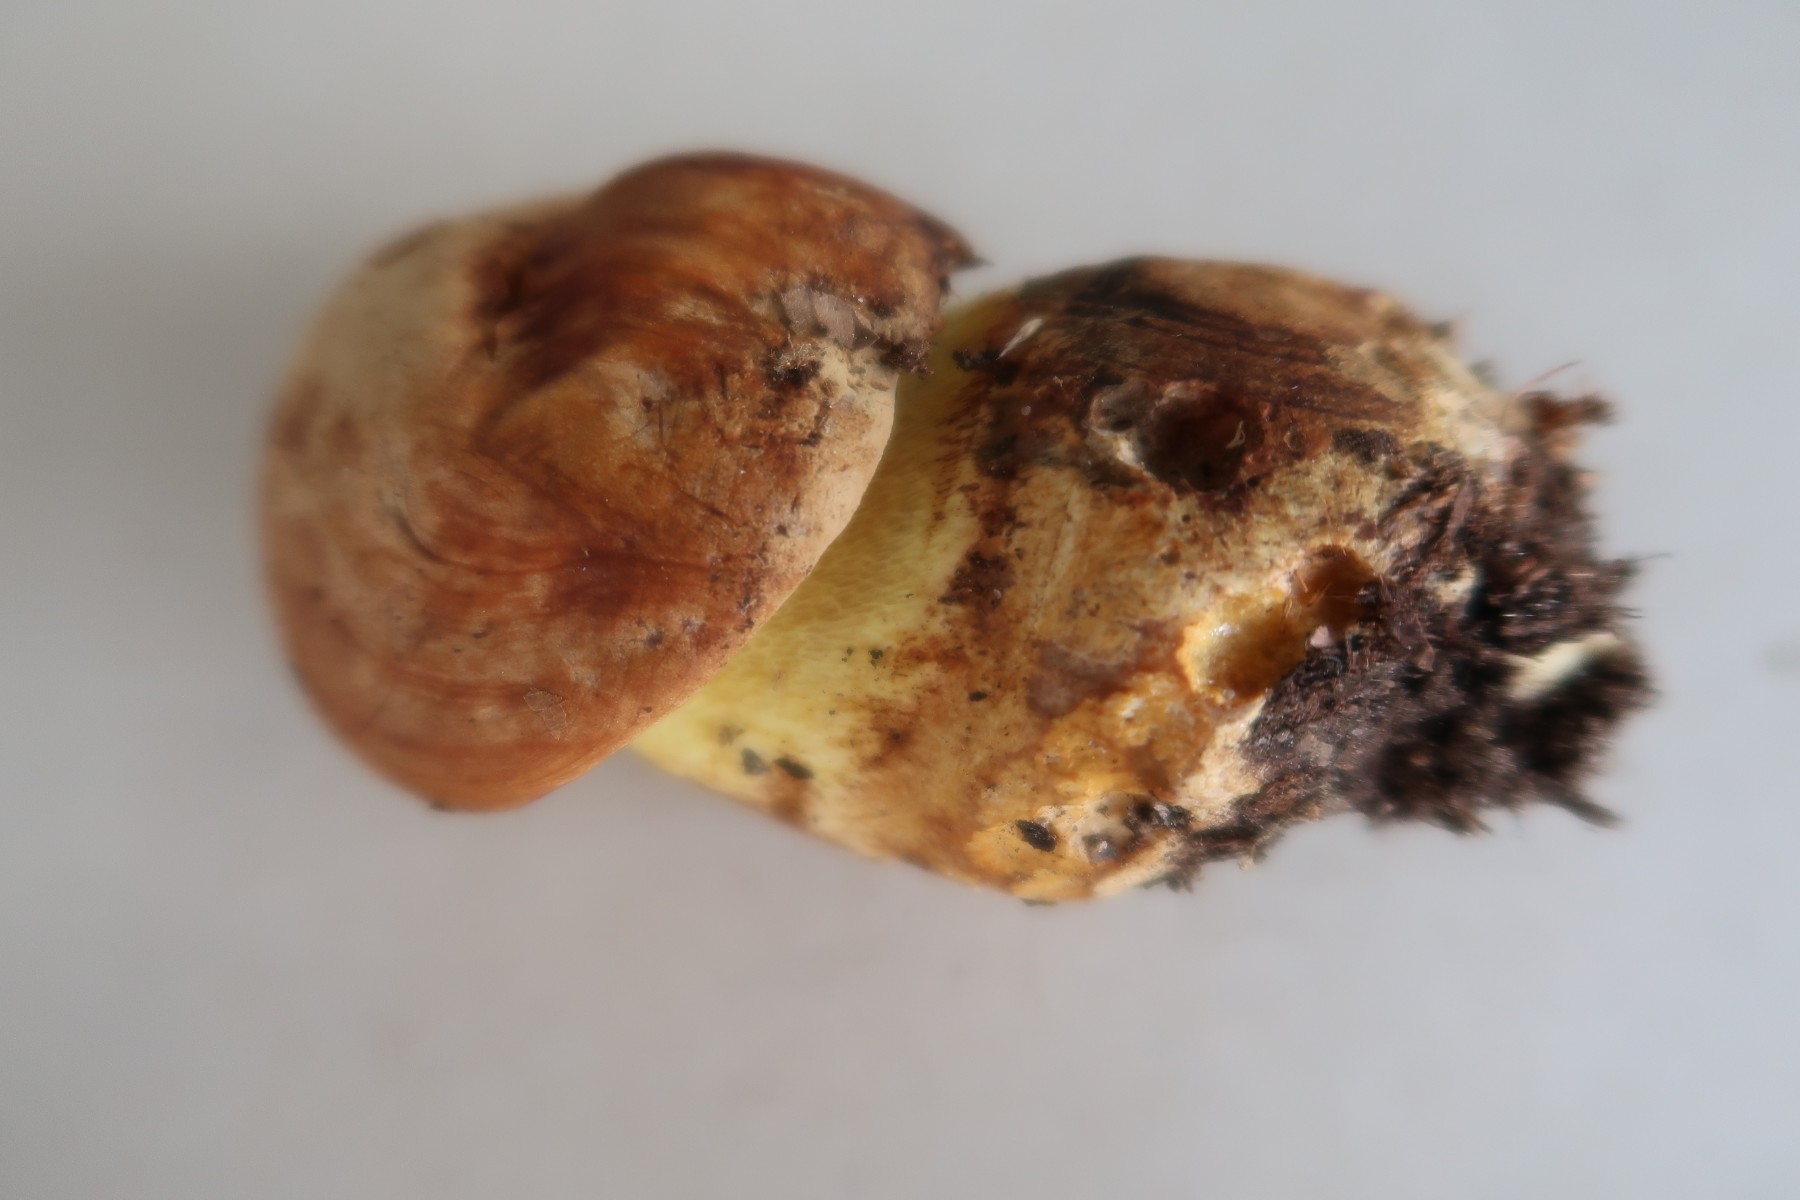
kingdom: Fungi
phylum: Basidiomycota
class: Agaricomycetes
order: Boletales
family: Boletaceae
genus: Butyriboletus
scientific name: Butyriboletus appendiculatus
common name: tenstokket rørhat
